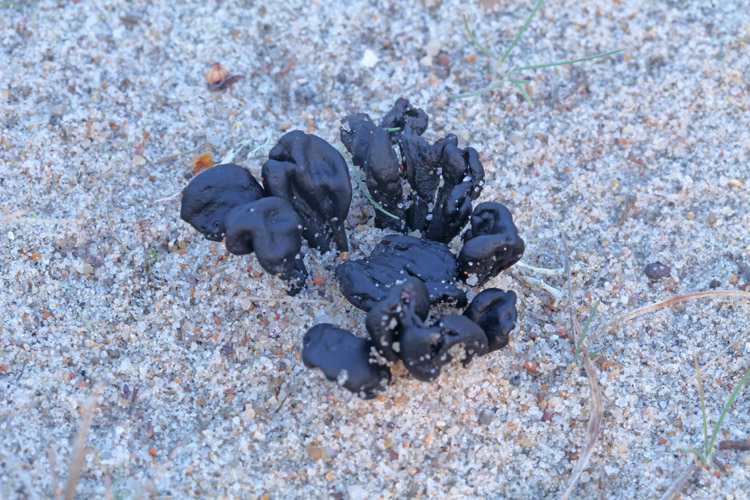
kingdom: Fungi
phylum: Ascomycota
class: Geoglossomycetes
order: Geoglossales
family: Geoglossaceae
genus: Sabuloglossum
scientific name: Sabuloglossum arenarium
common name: klit-jordtunge
